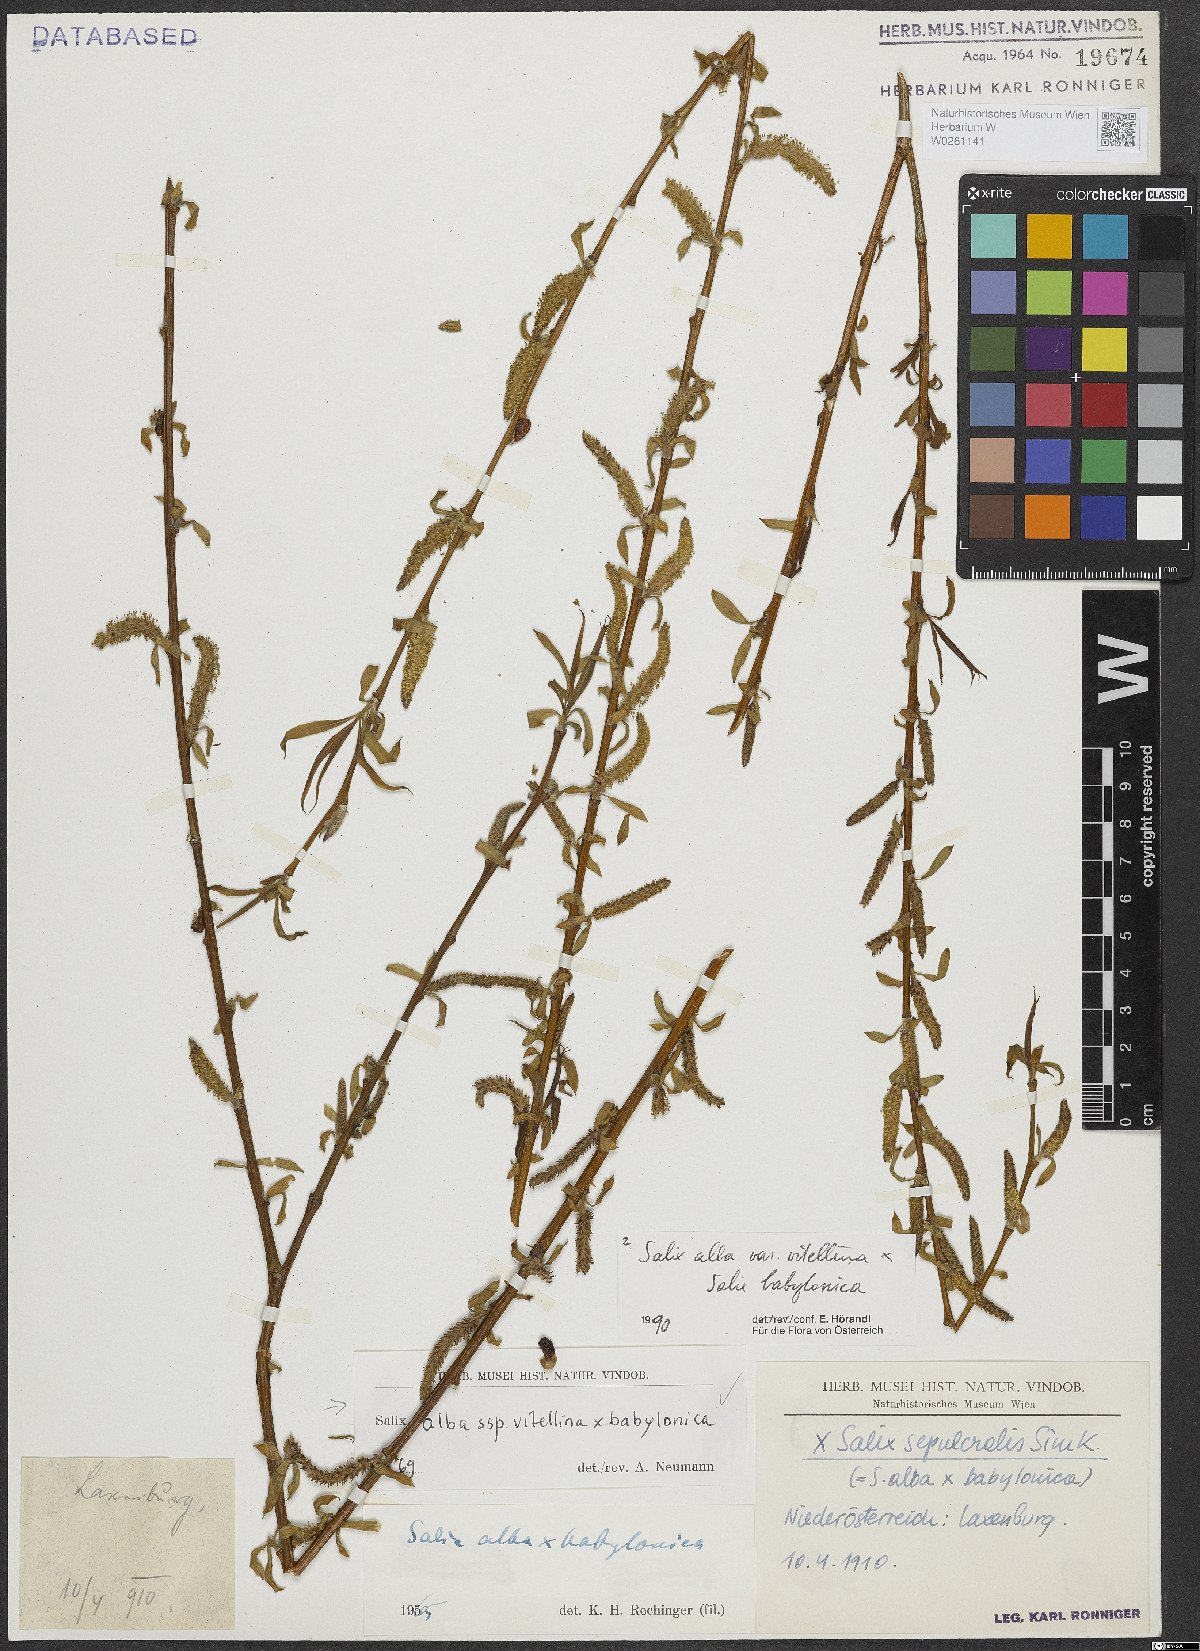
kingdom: Plantae
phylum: Tracheophyta
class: Magnoliopsida
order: Malpighiales
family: Salicaceae
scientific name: Salicaceae
